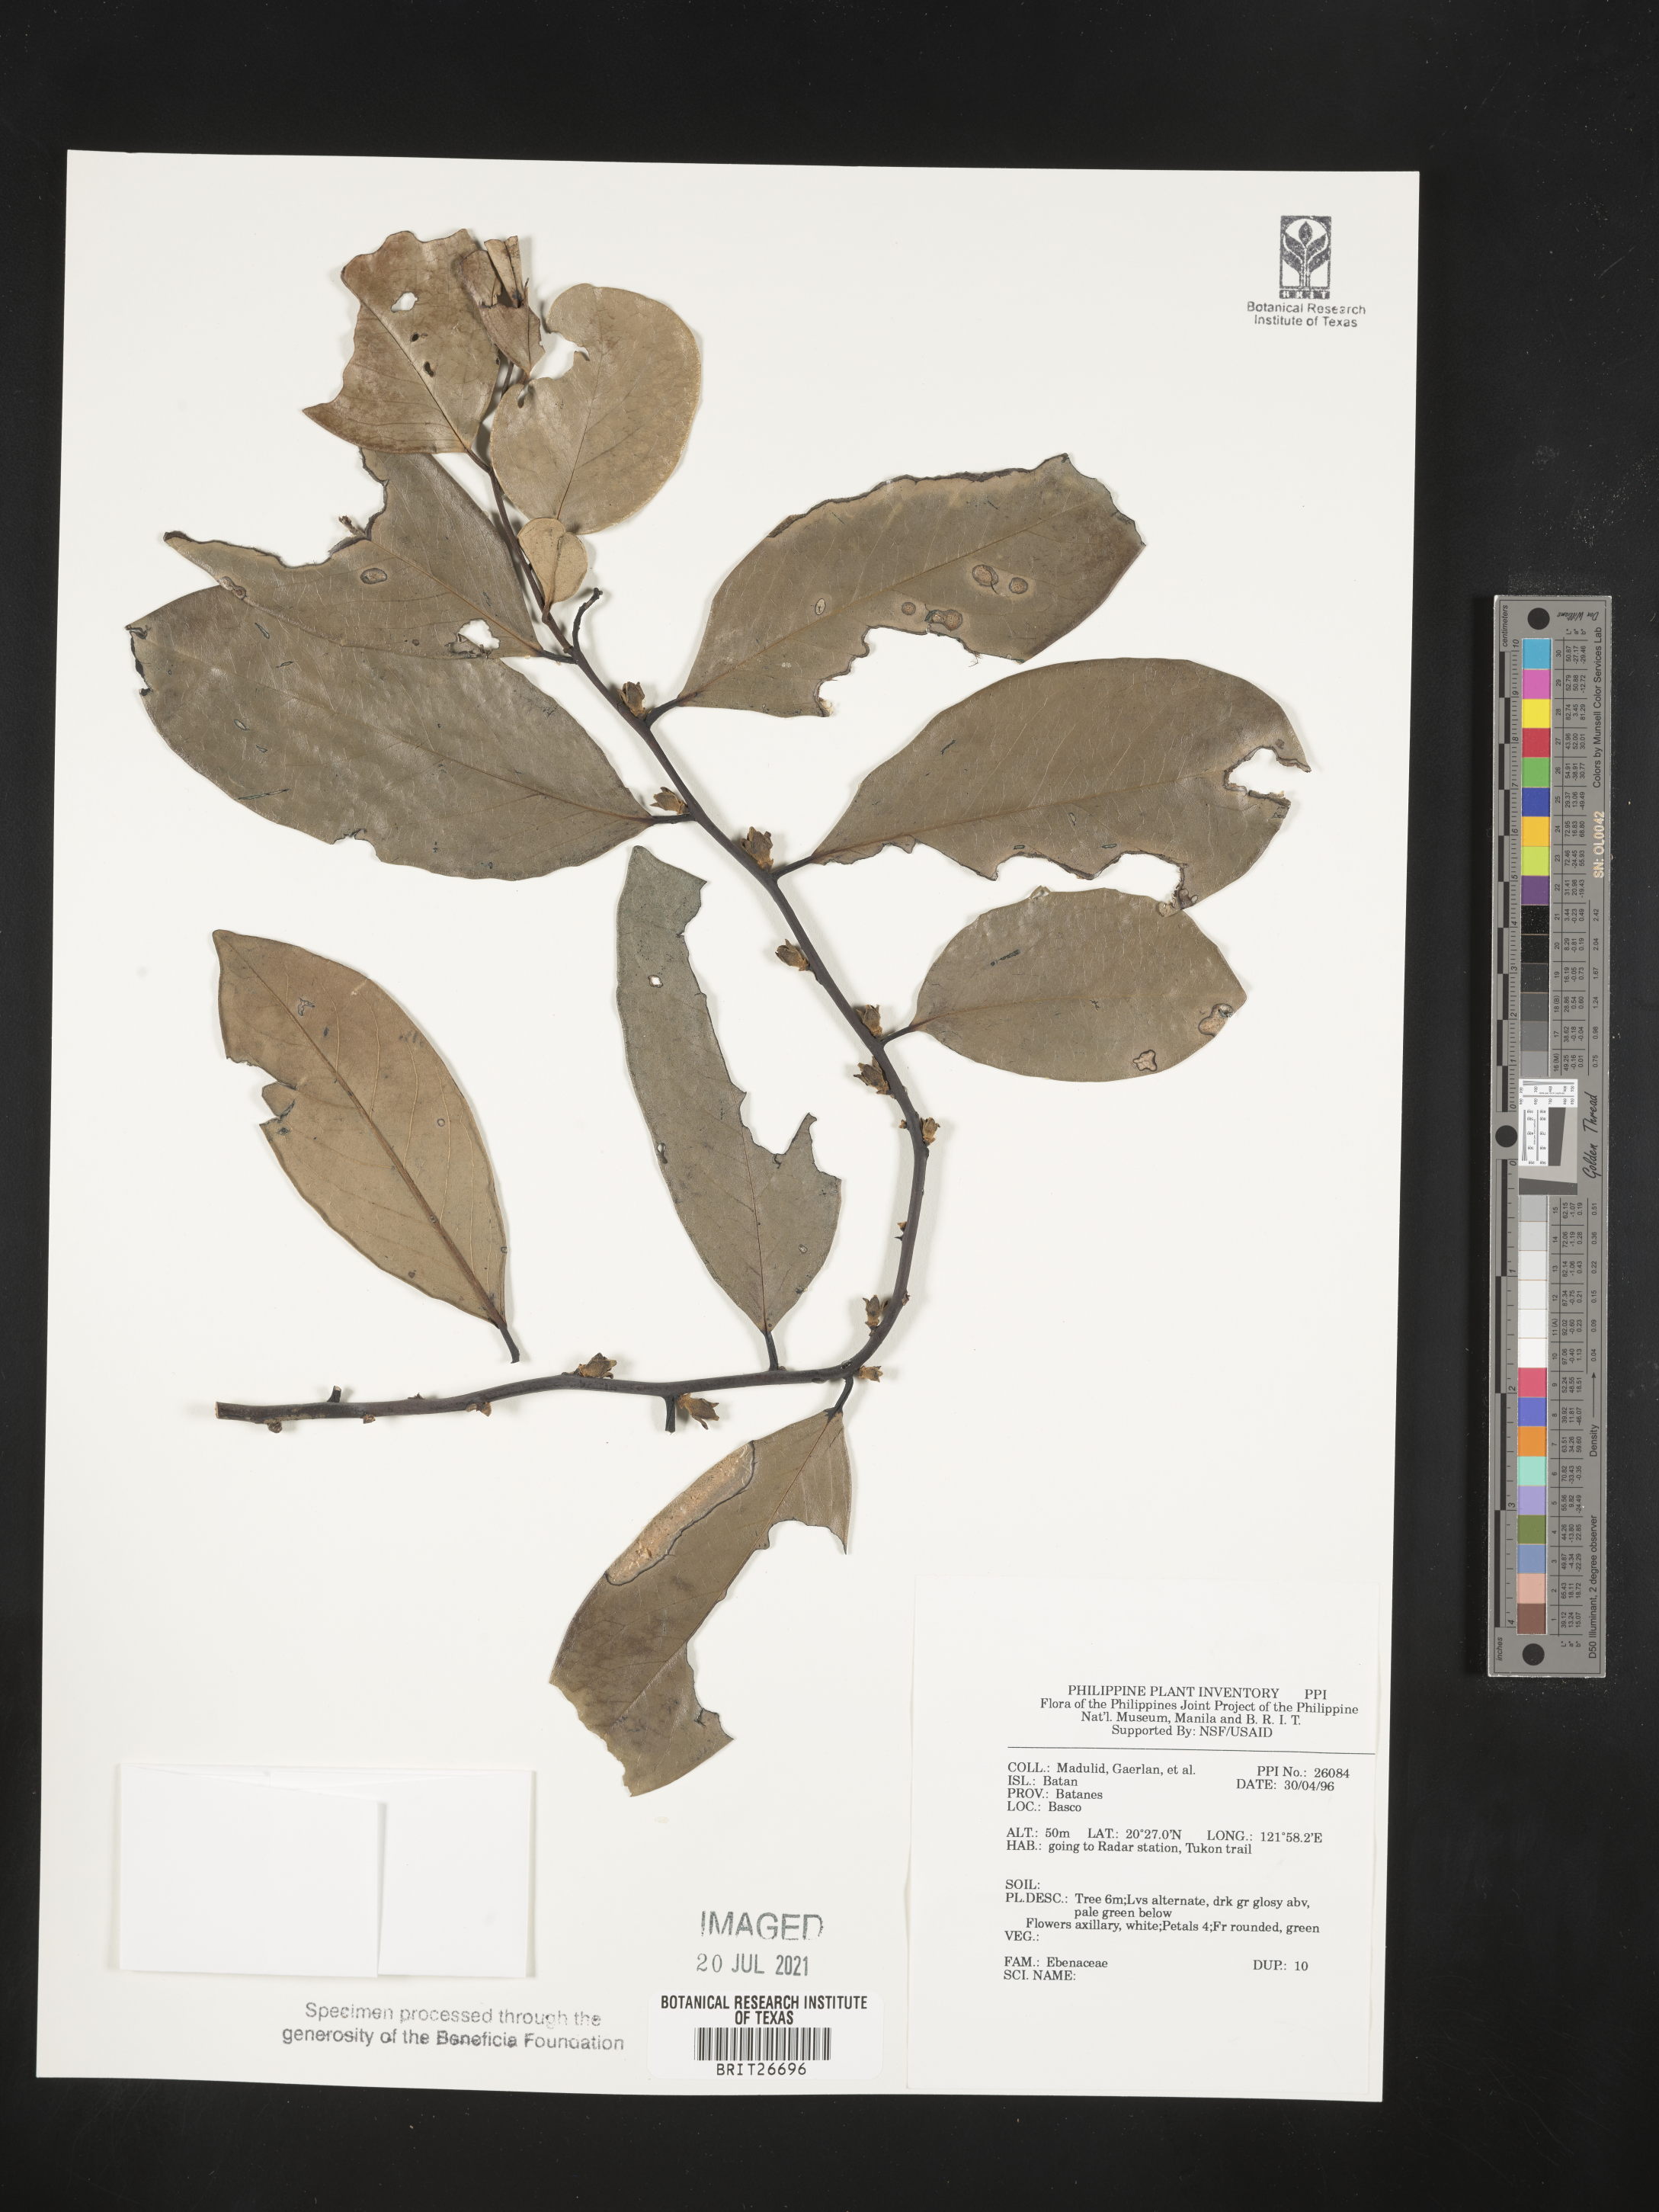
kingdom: Plantae
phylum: Tracheophyta
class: Magnoliopsida
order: Ericales
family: Ebenaceae
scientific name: Ebenaceae
